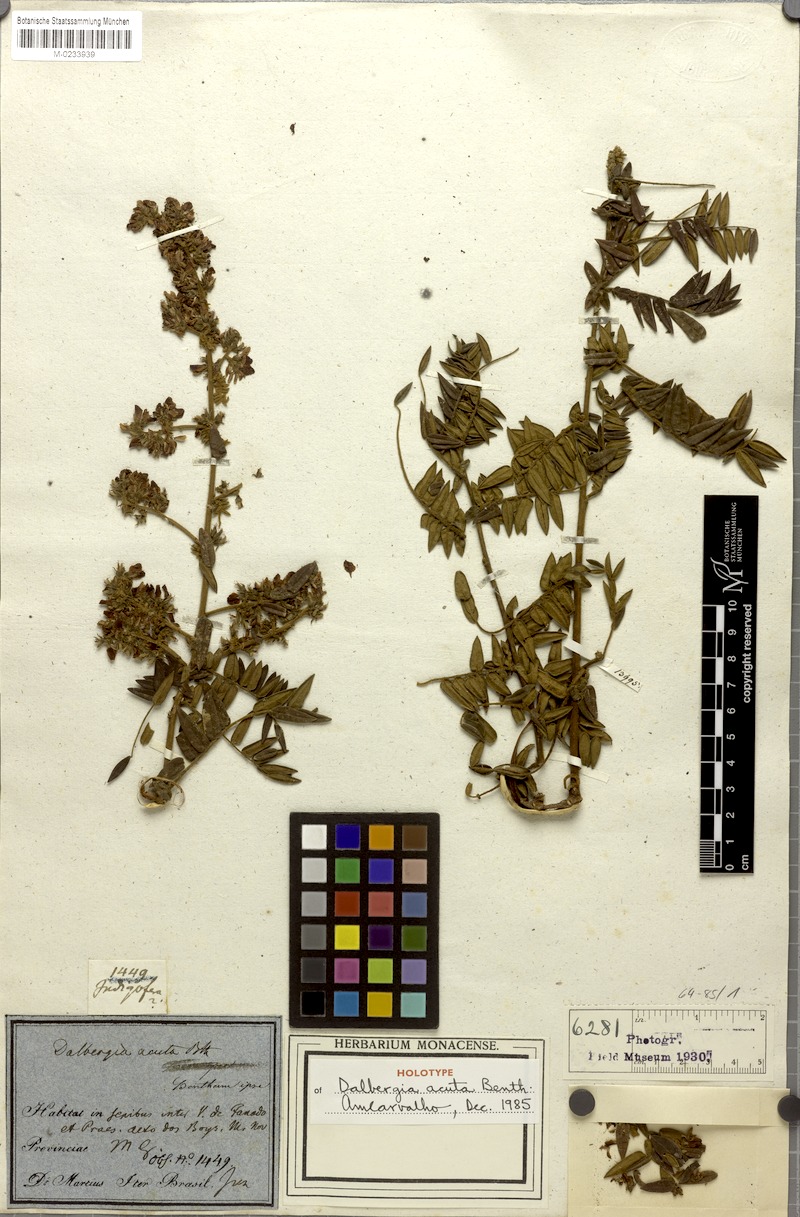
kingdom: Plantae
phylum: Tracheophyta
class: Magnoliopsida
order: Fabales
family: Fabaceae
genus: Dalbergia
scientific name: Dalbergia acuta
